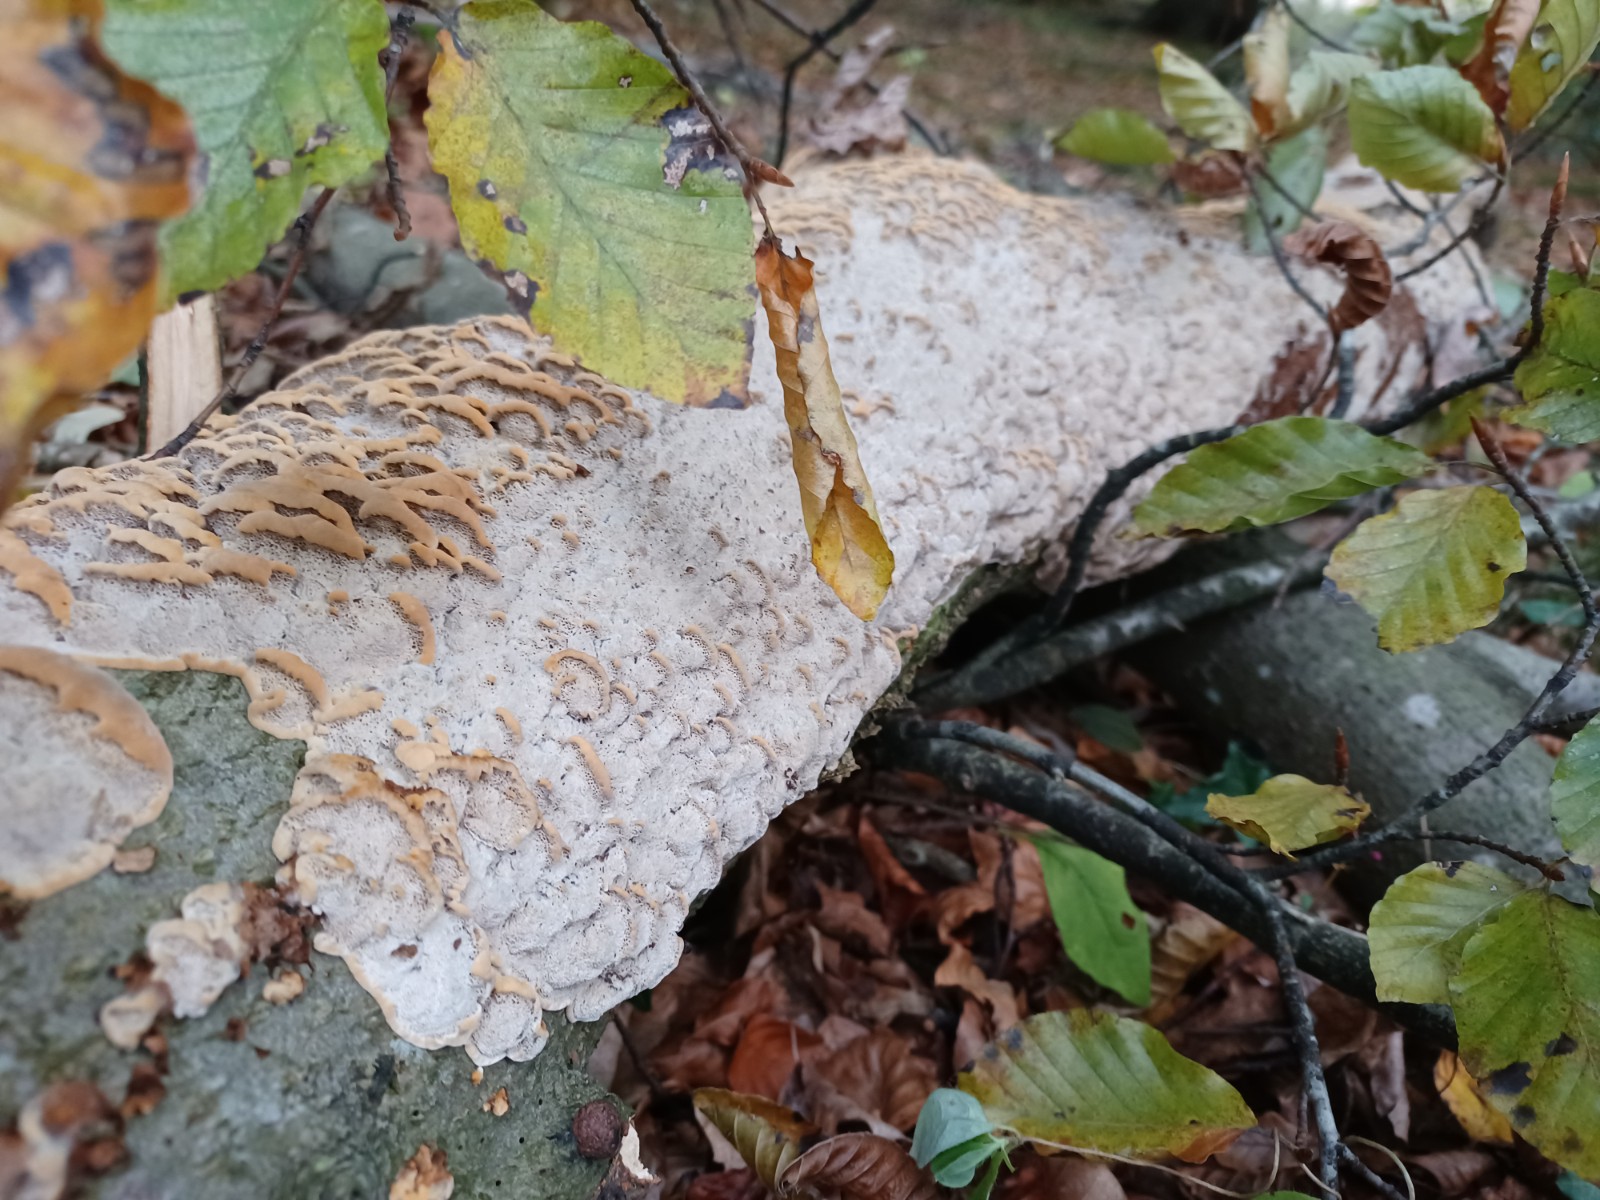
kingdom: Fungi
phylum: Basidiomycota
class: Agaricomycetes
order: Hymenochaetales
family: Hymenochaetaceae
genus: Mensularia
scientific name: Mensularia nodulosa
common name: bøge-spejlporesvamp
